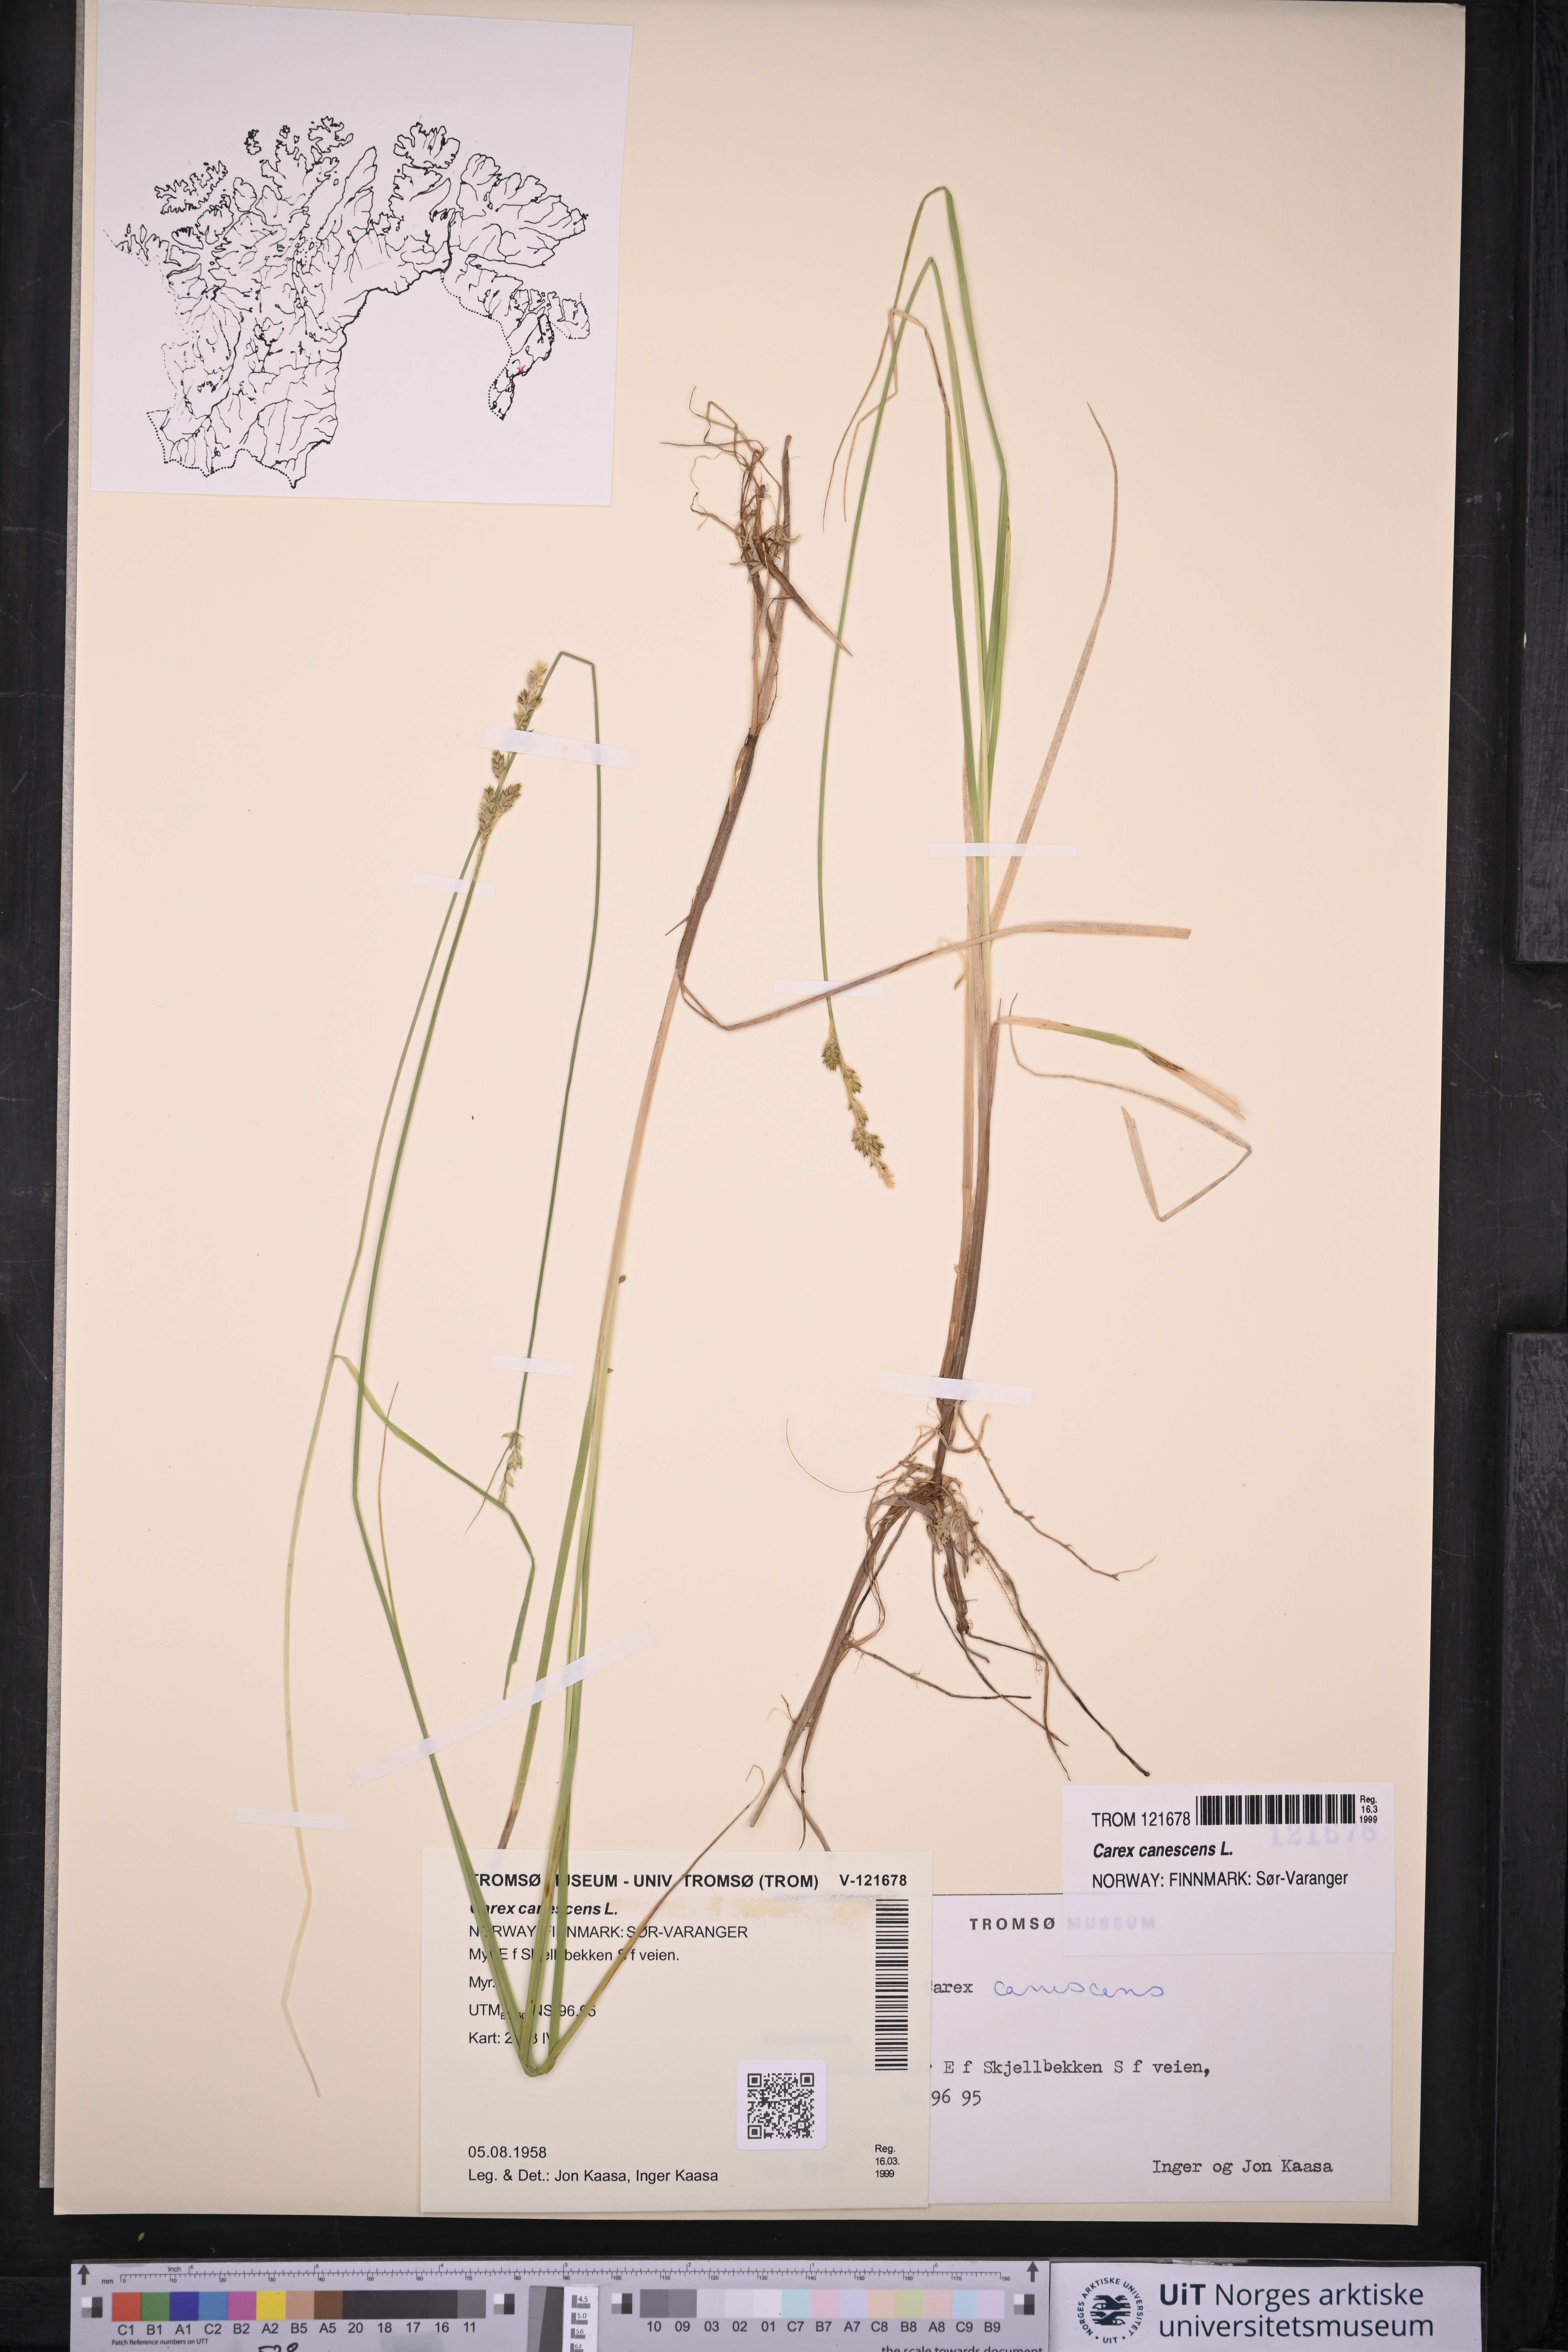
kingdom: Plantae
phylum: Tracheophyta
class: Liliopsida
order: Poales
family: Cyperaceae
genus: Carex
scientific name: Carex canescens
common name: White sedge
